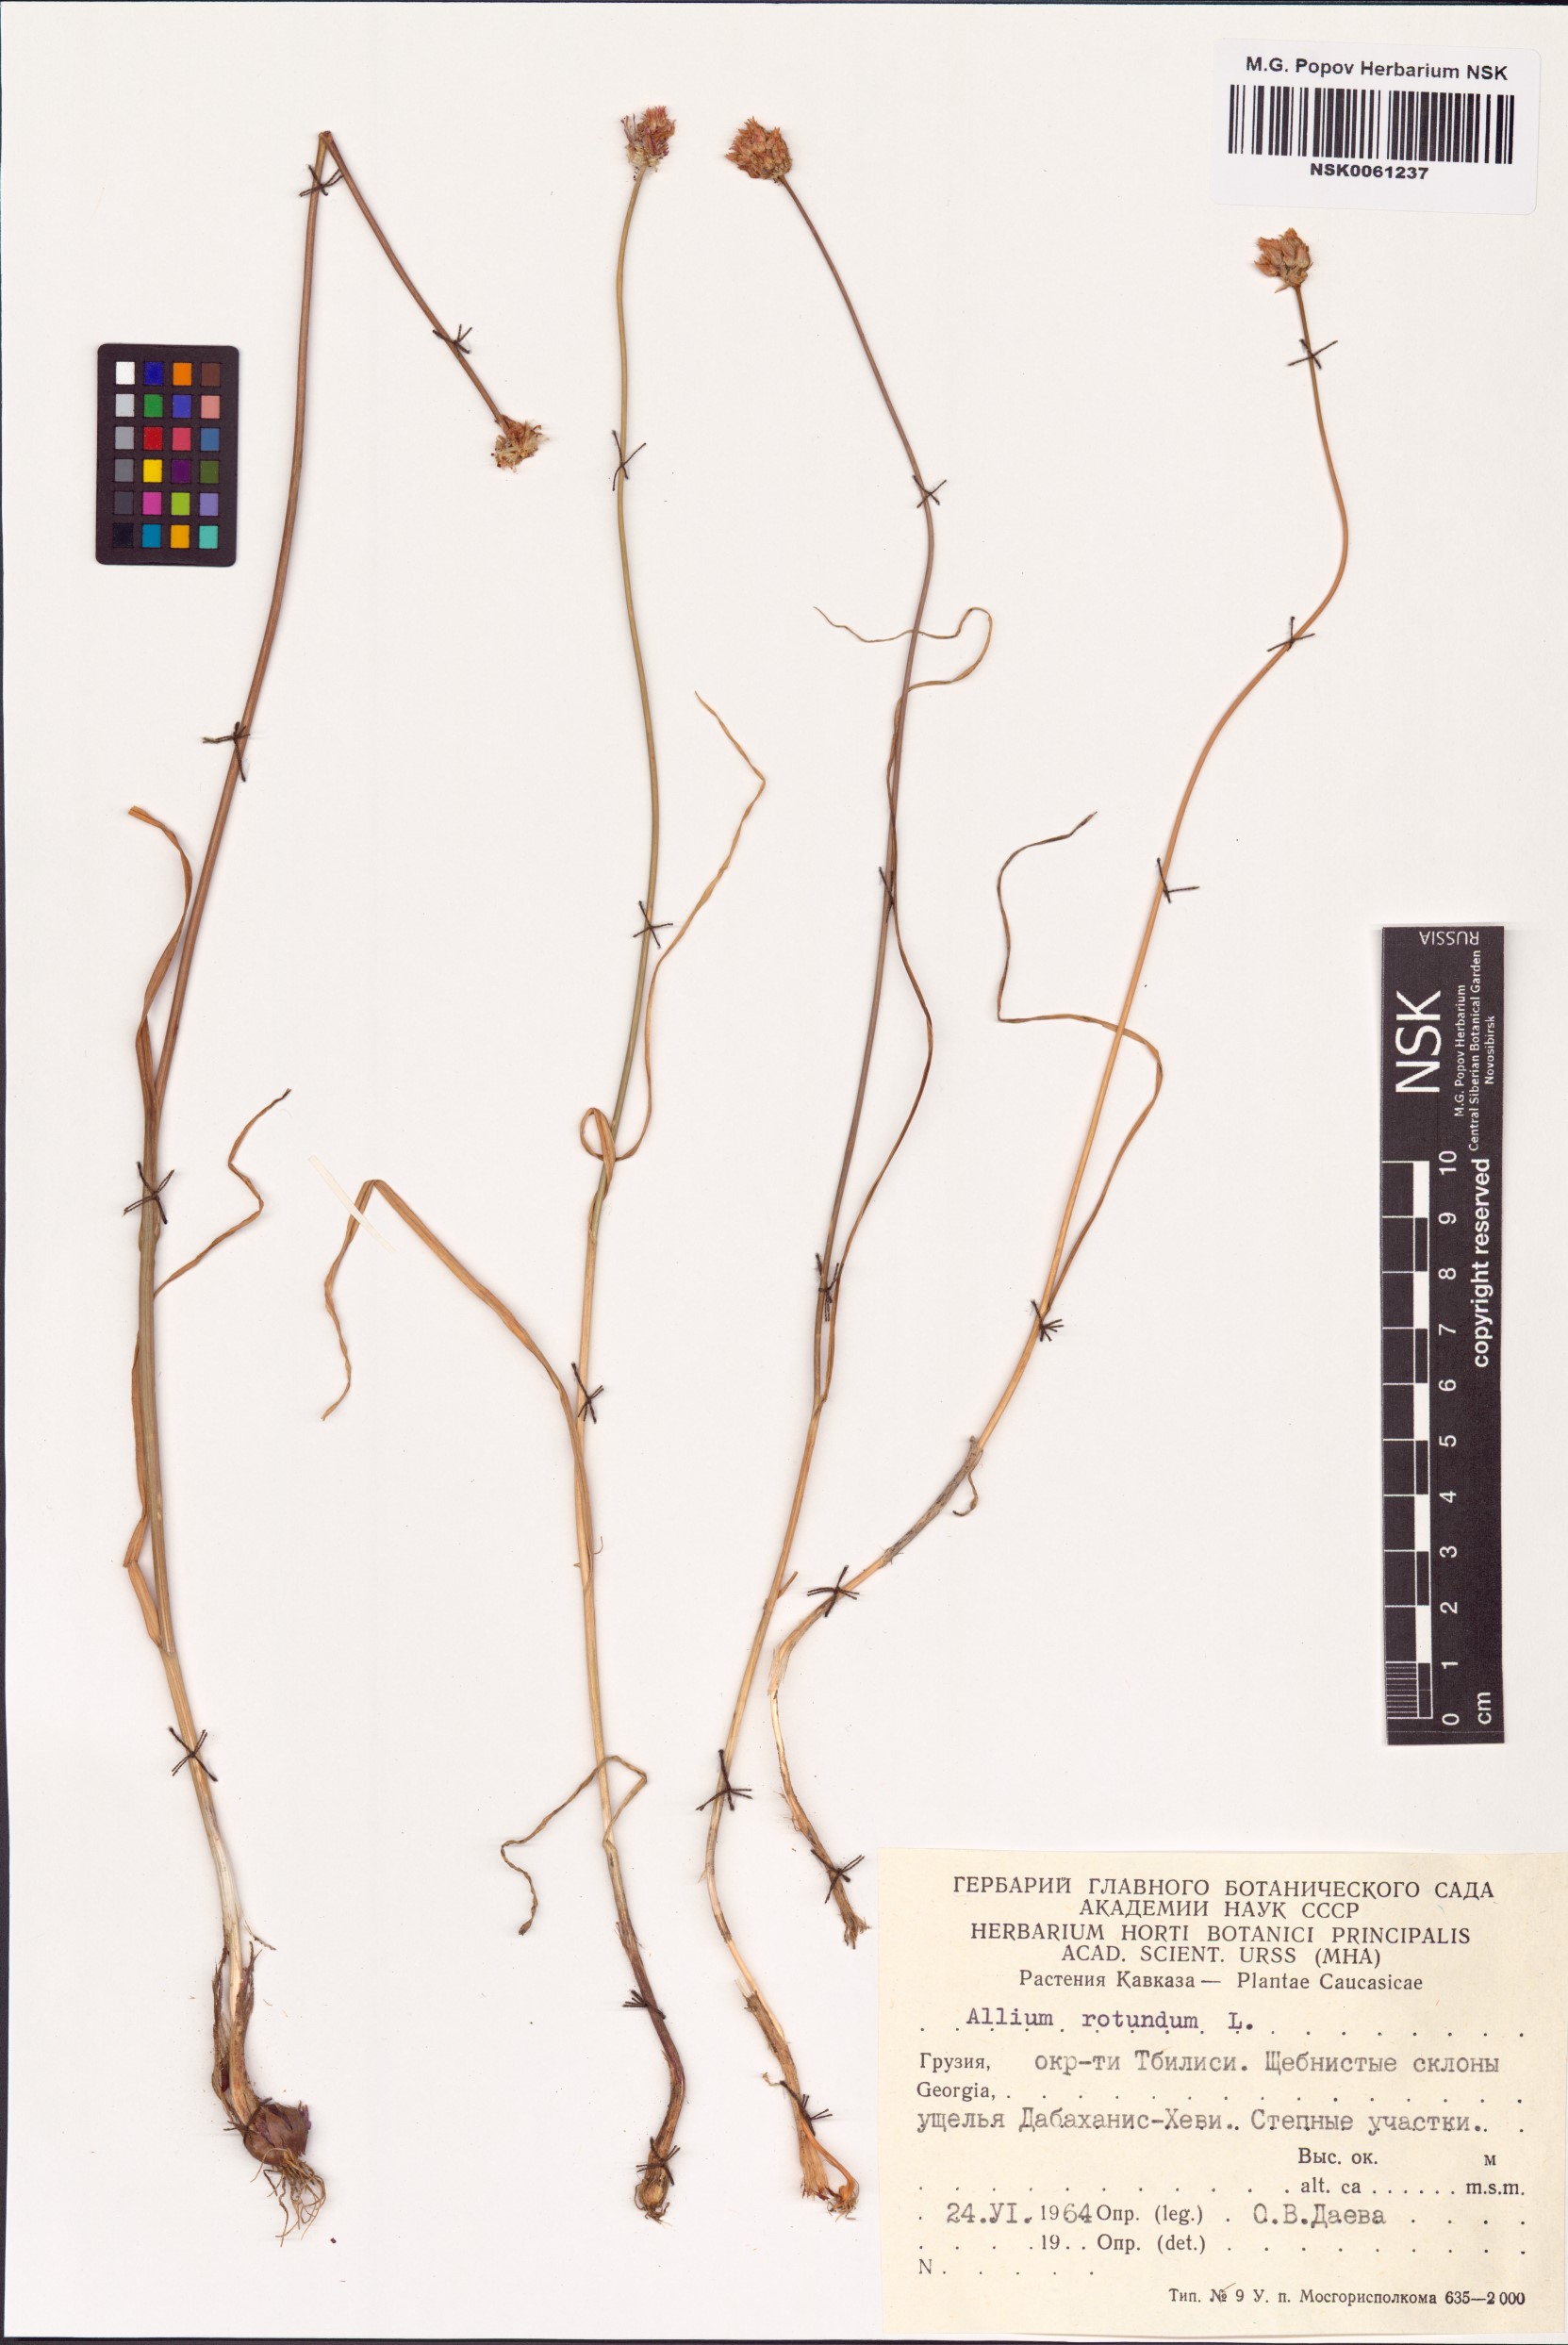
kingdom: Plantae
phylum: Tracheophyta
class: Liliopsida
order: Asparagales
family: Amaryllidaceae
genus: Allium
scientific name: Allium rotundum
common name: Sand leek
